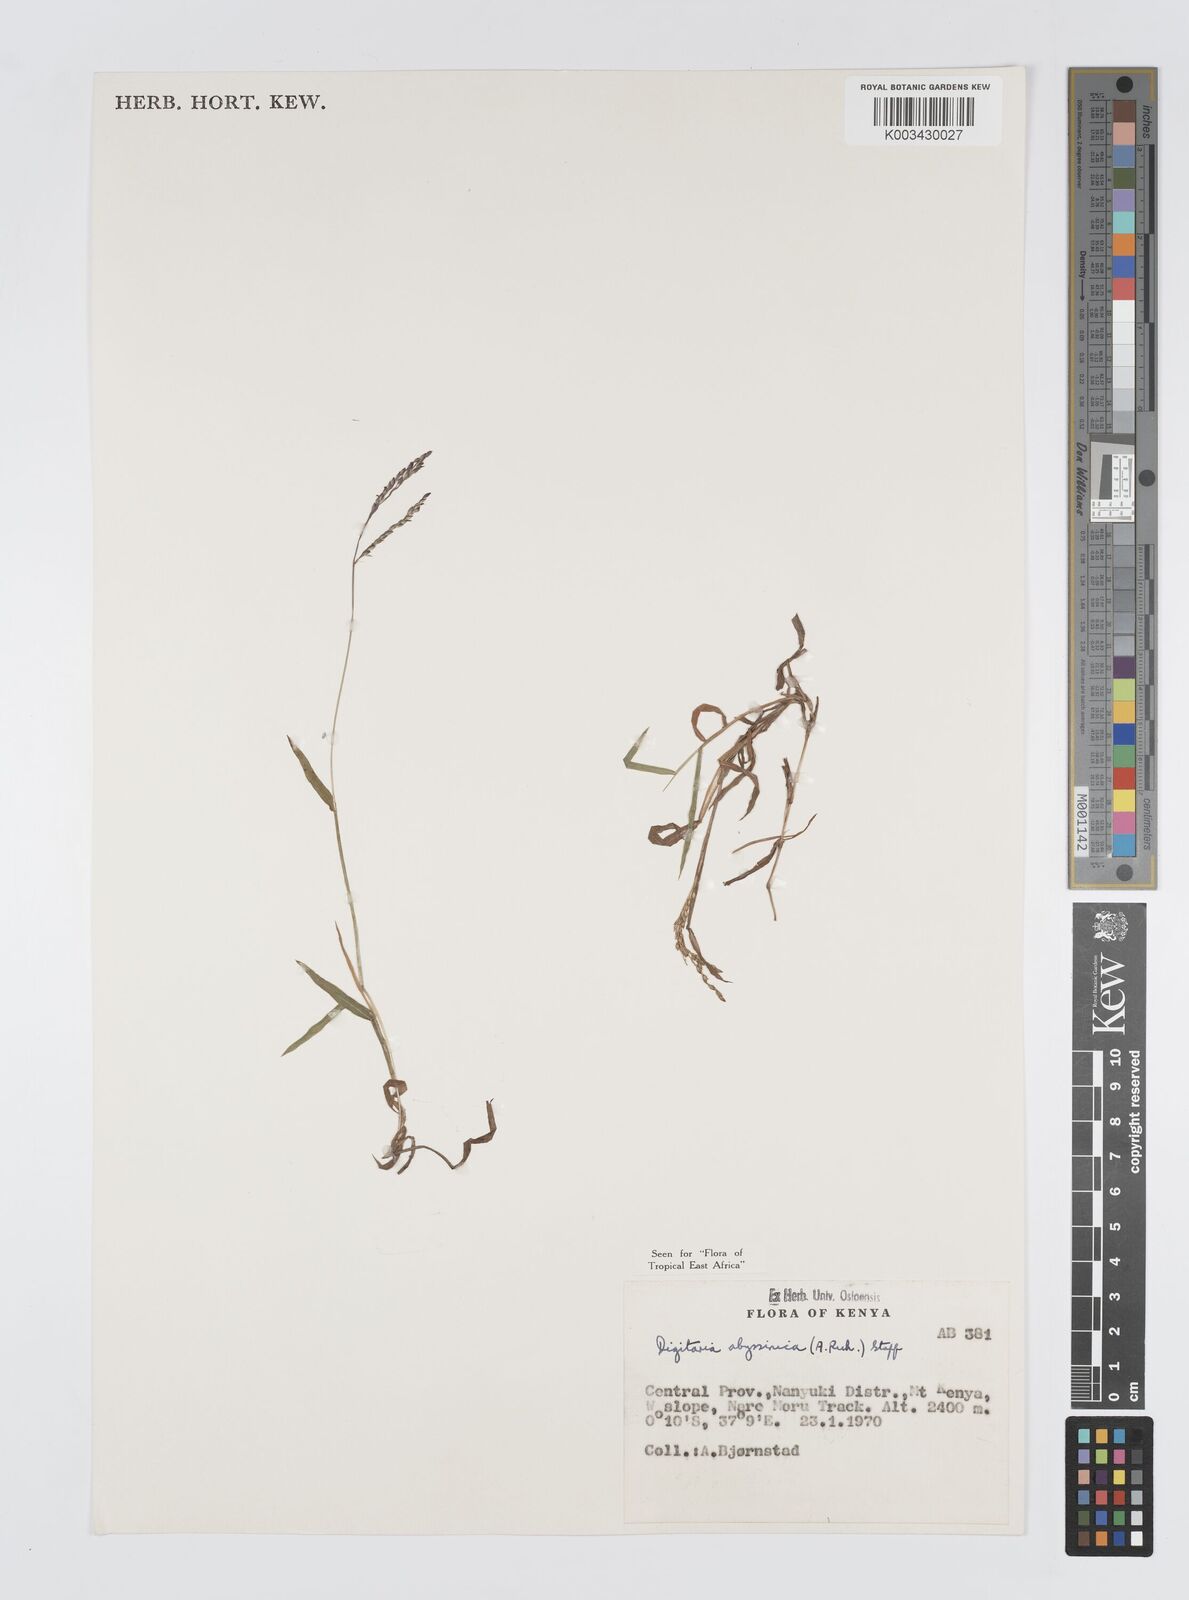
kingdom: Plantae
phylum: Tracheophyta
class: Liliopsida
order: Poales
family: Poaceae
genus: Digitaria
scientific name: Digitaria abyssinica
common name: African couchgrass
